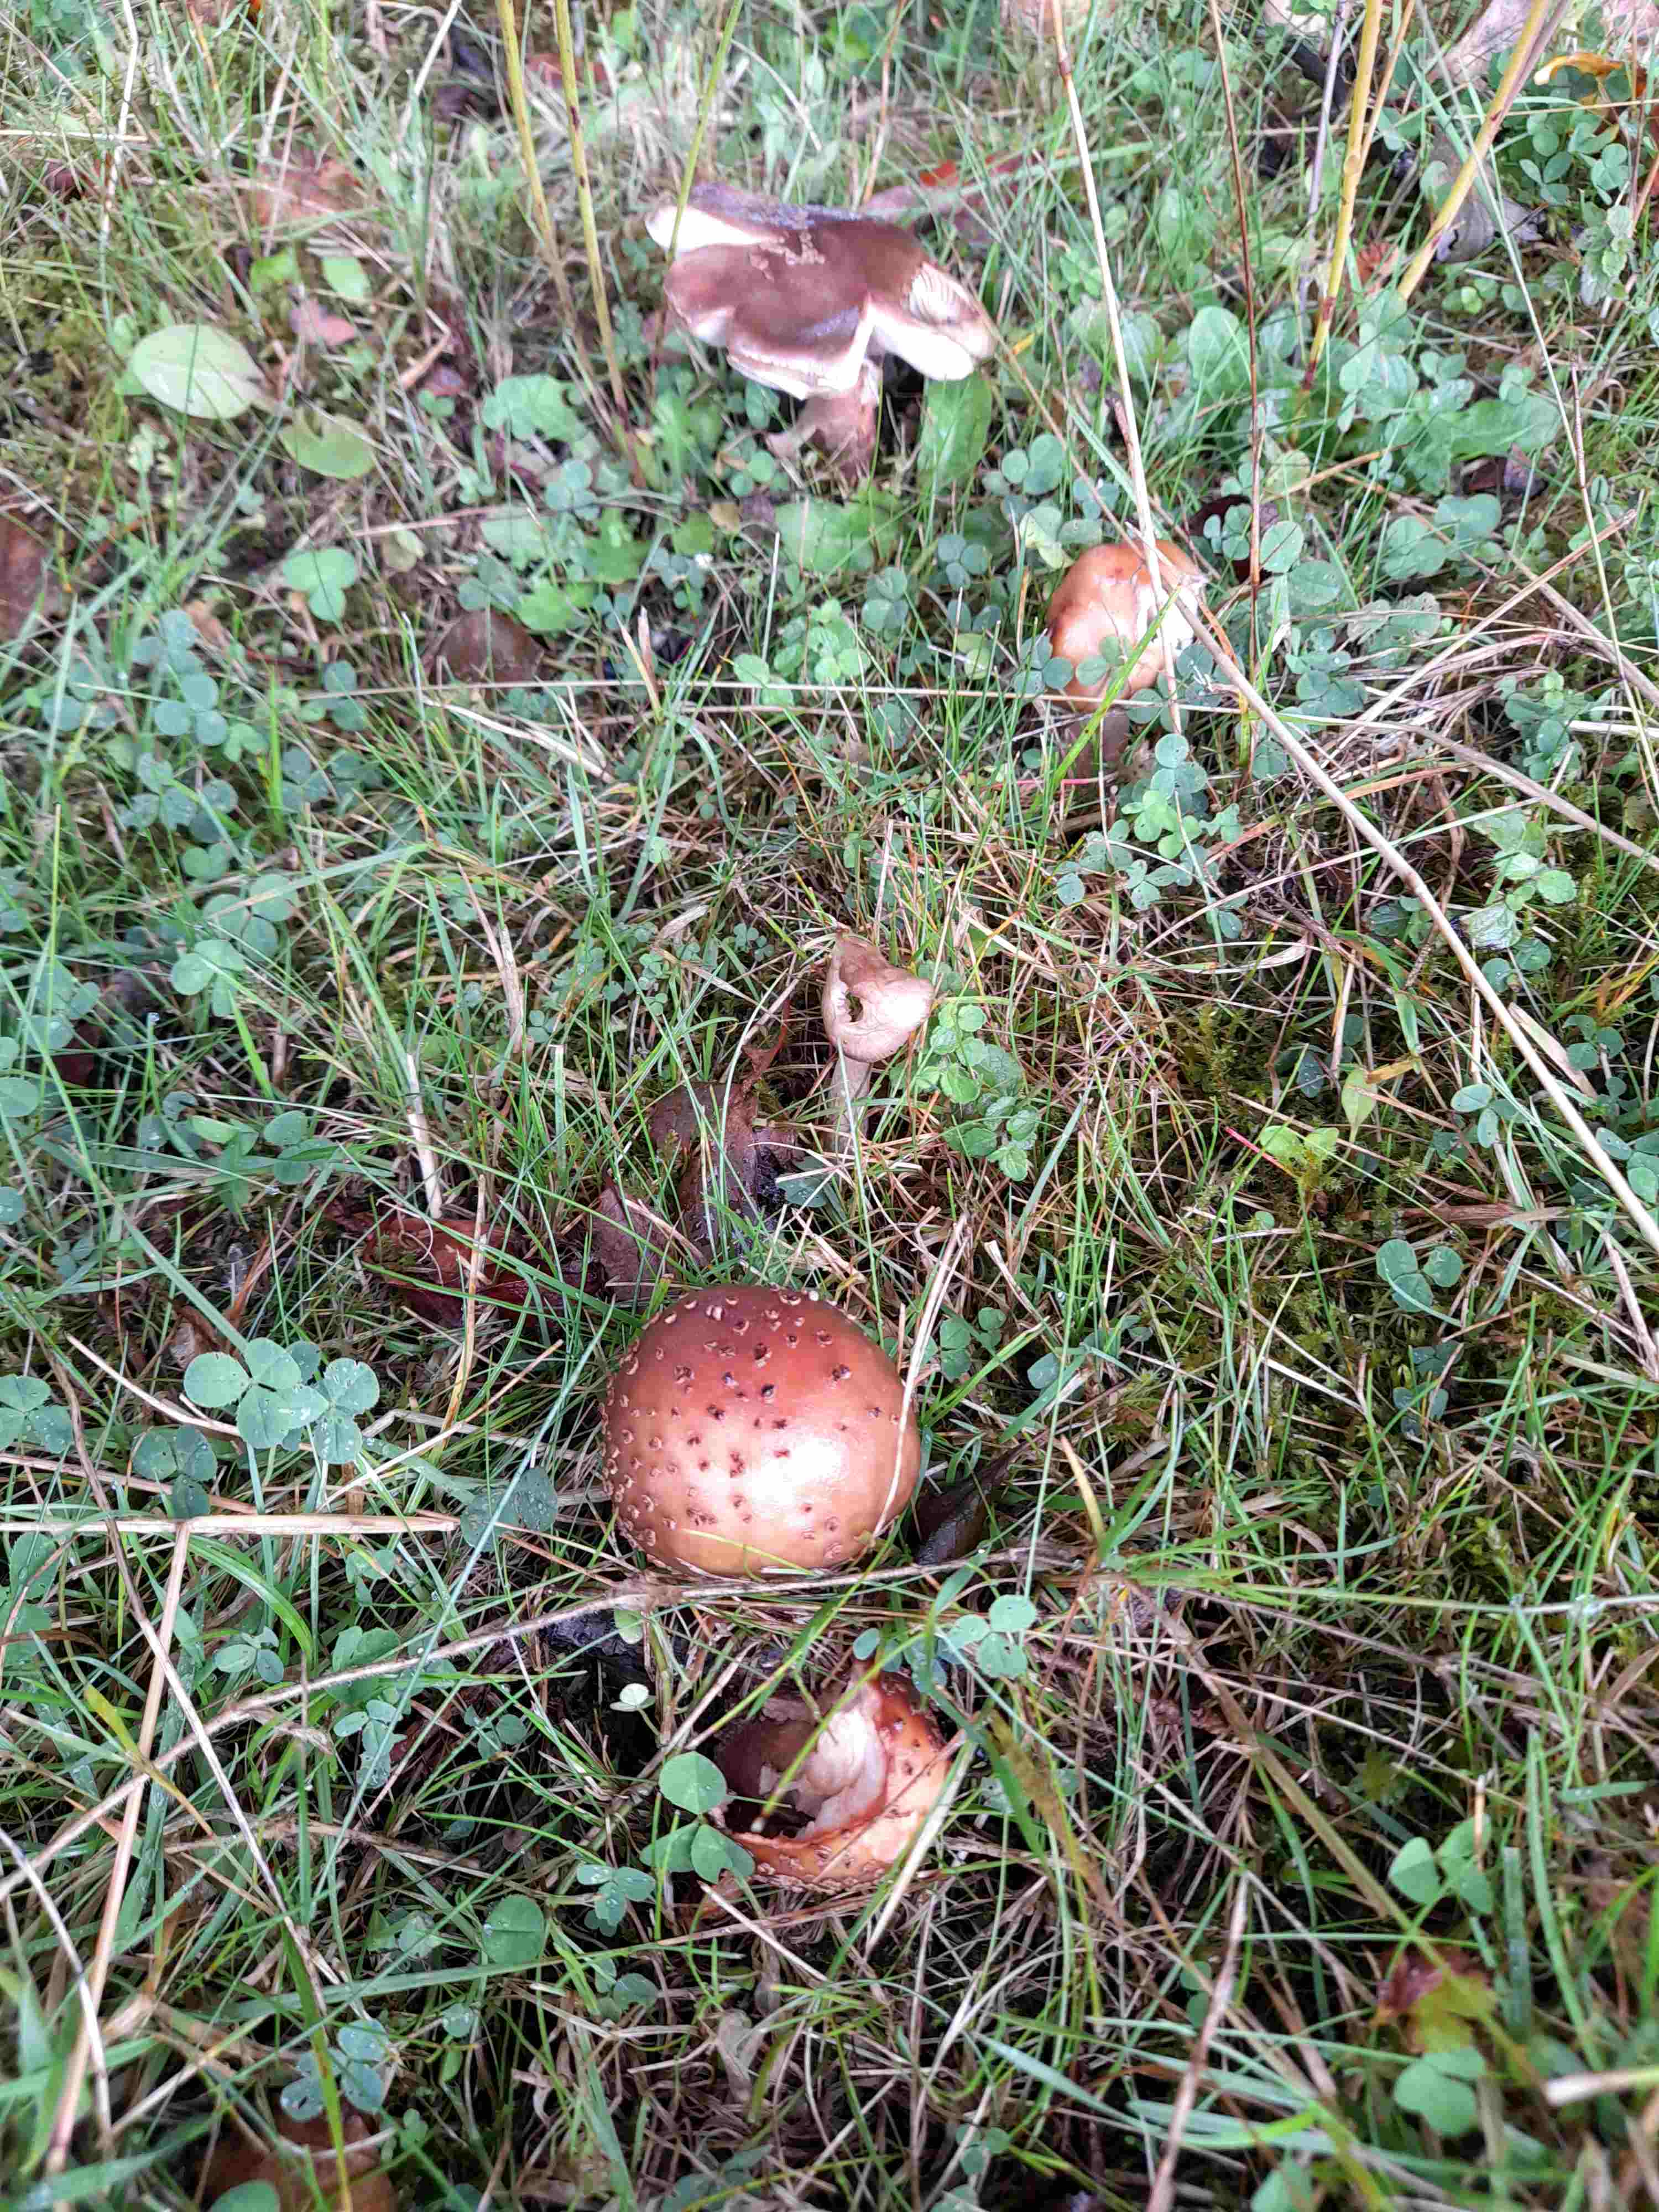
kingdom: Fungi
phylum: Basidiomycota
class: Agaricomycetes
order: Agaricales
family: Amanitaceae
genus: Amanita
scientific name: Amanita rubescens
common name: rødmende fluesvamp
